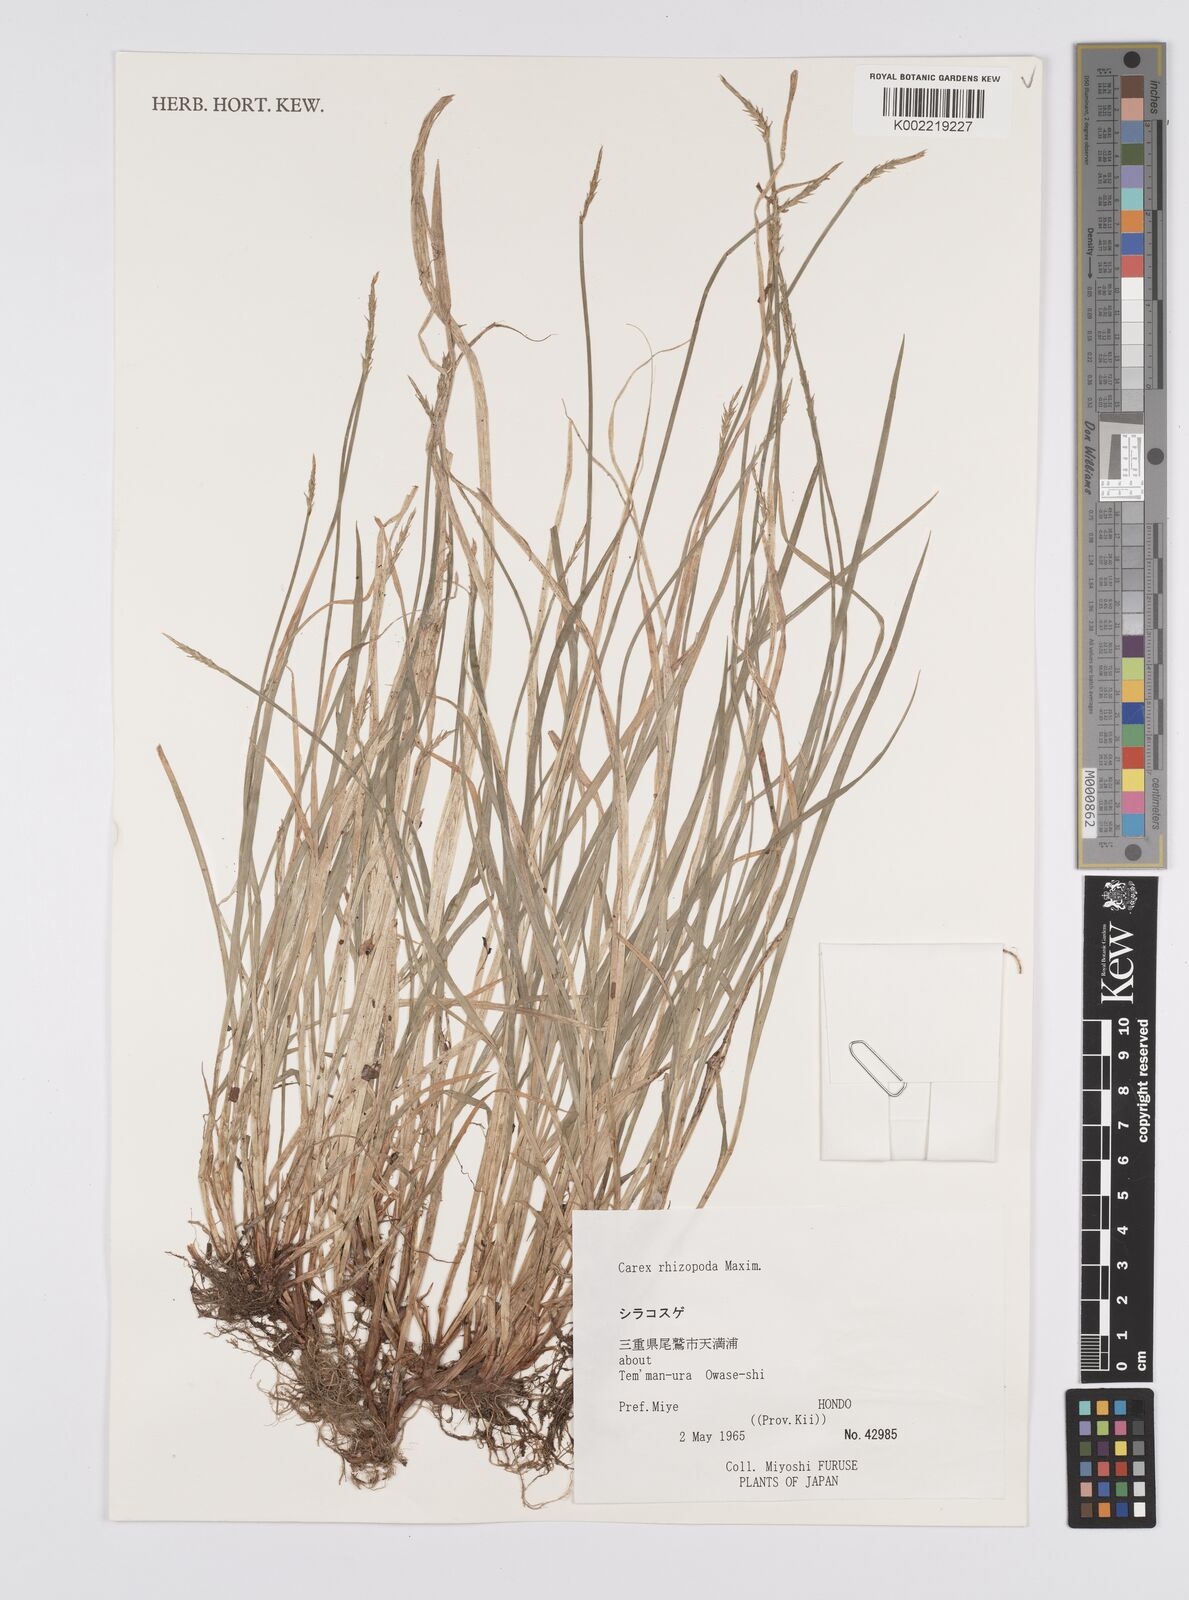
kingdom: Plantae
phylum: Tracheophyta
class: Liliopsida
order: Poales
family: Cyperaceae
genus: Carex
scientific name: Carex rhizopoda
